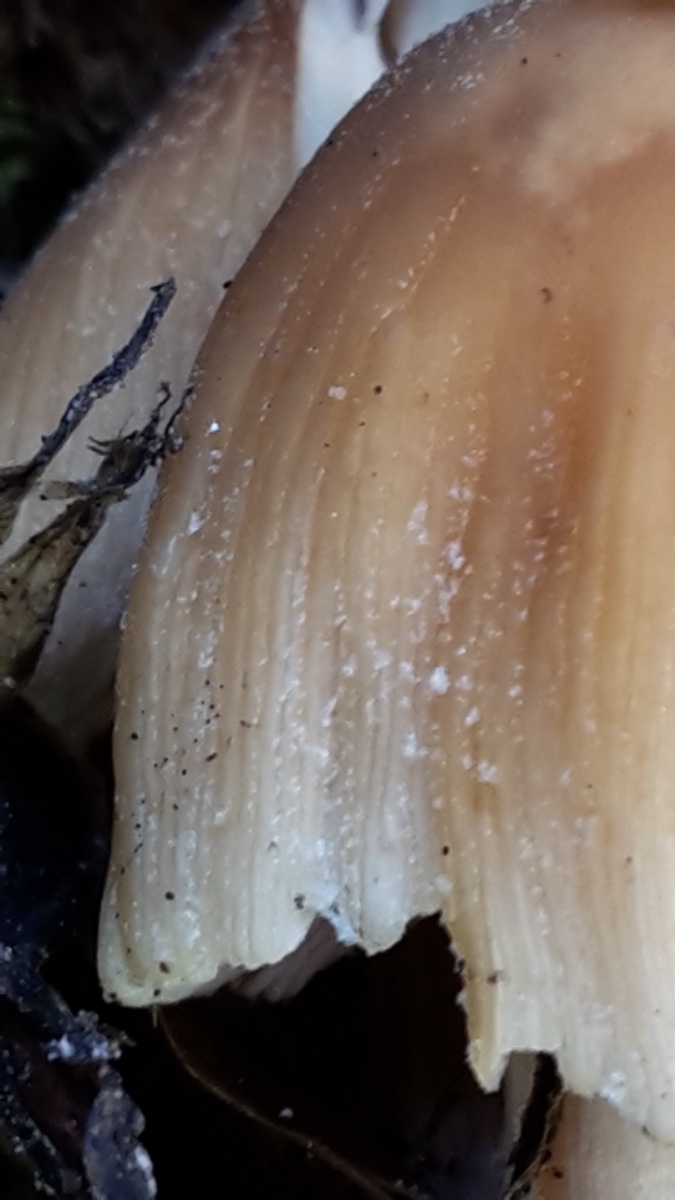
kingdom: Fungi
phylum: Basidiomycota
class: Agaricomycetes
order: Agaricales
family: Psathyrellaceae
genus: Coprinellus
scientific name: Coprinellus micaceus
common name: glimmer-blækhat
